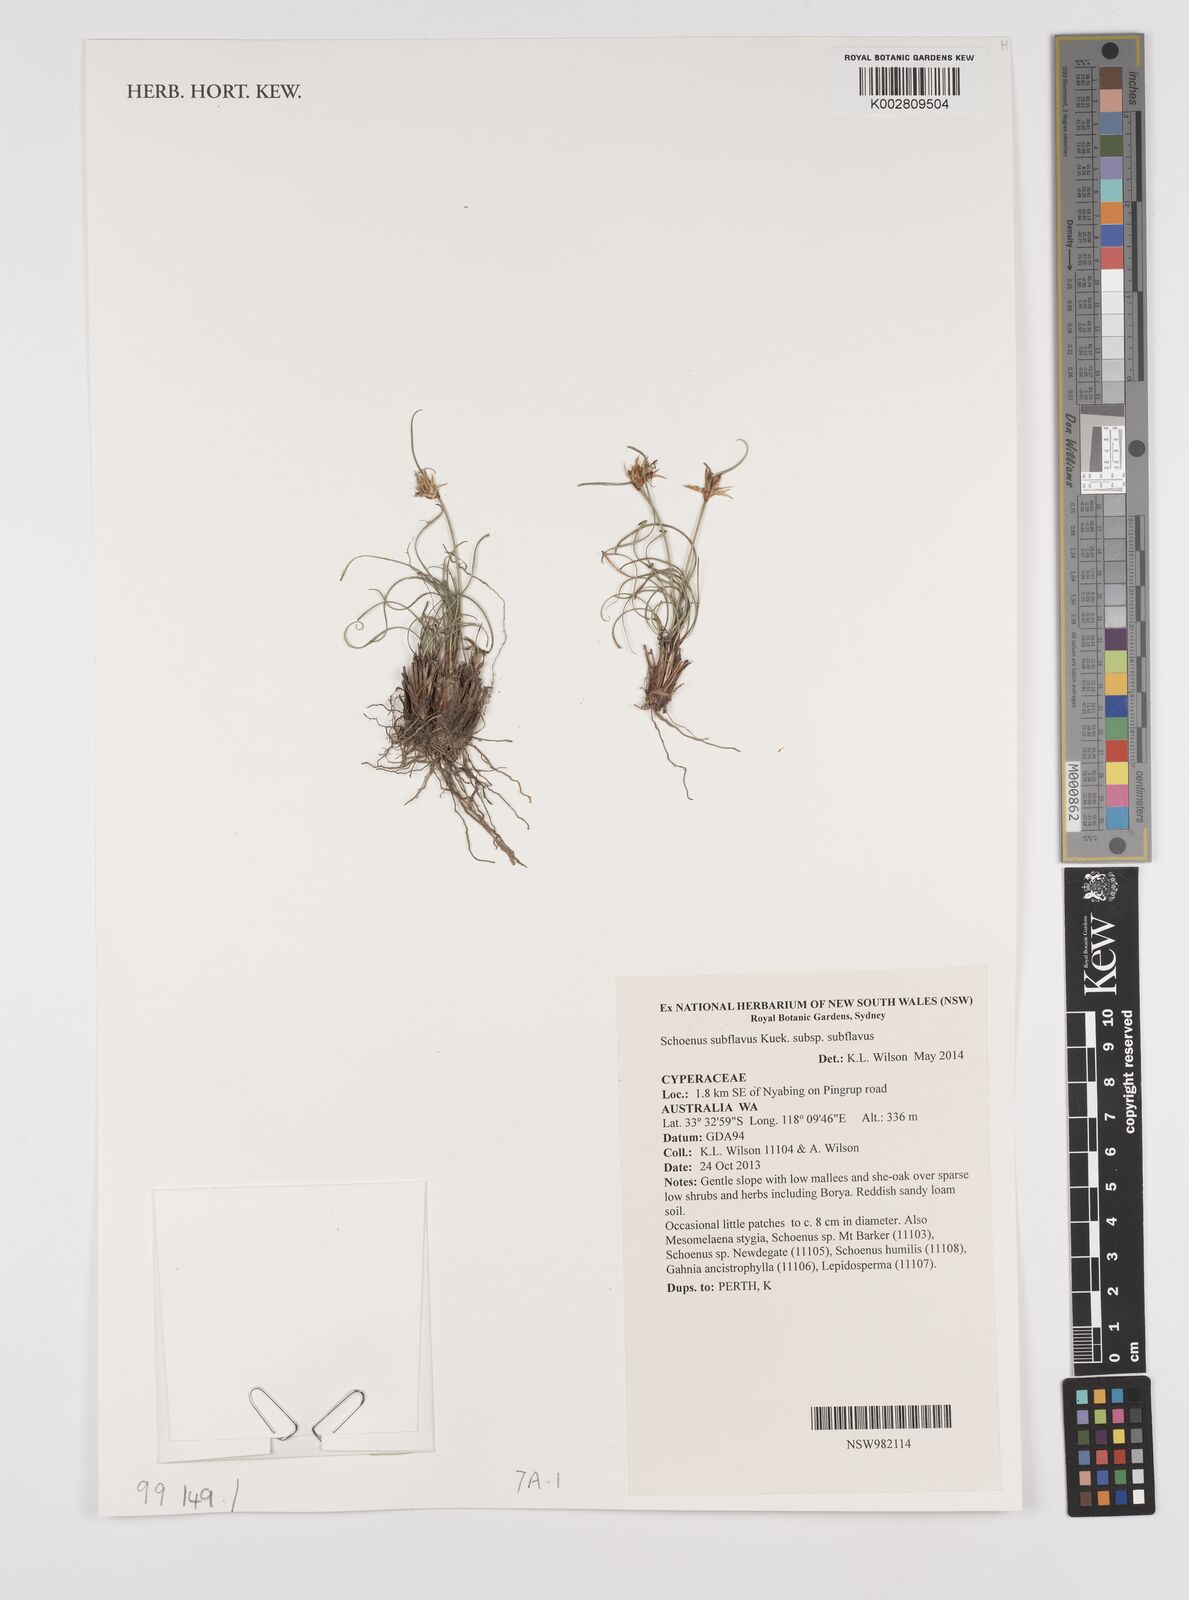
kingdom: Plantae
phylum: Tracheophyta
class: Liliopsida
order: Poales
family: Cyperaceae
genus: Schoenus
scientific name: Schoenus subflavus
